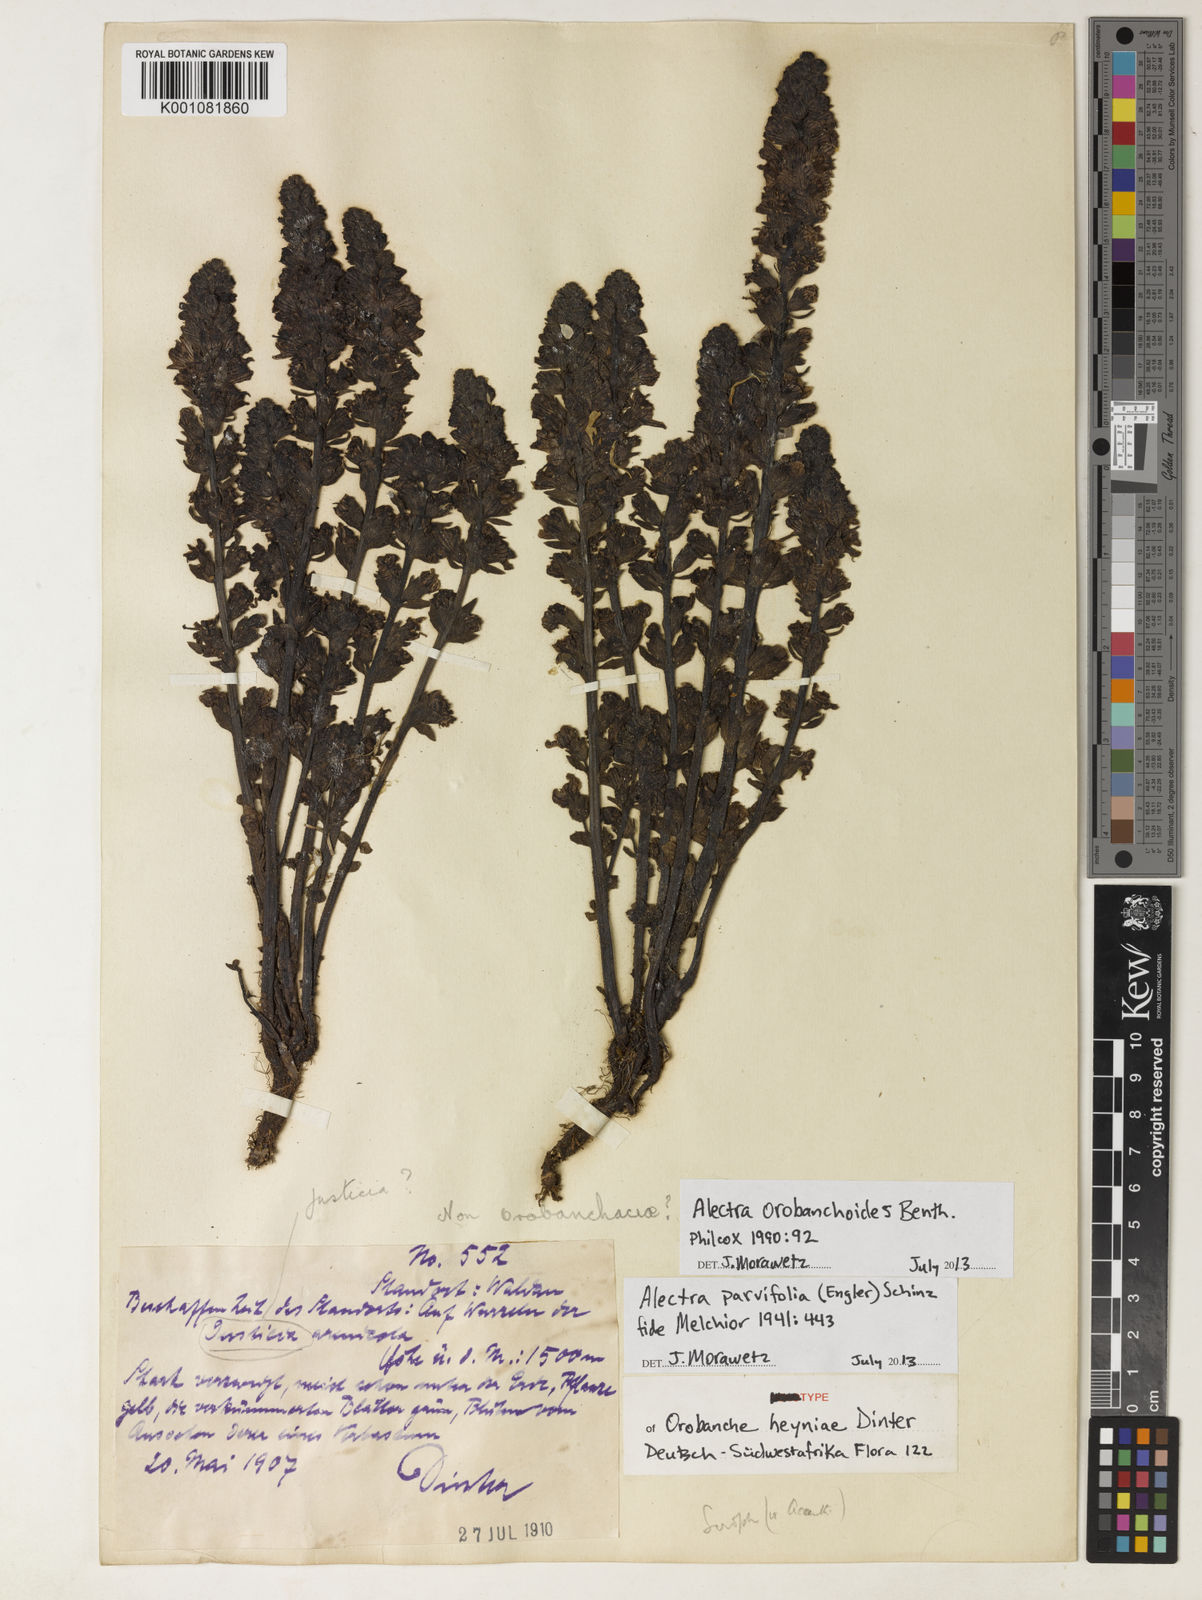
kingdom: Plantae
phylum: Tracheophyta
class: Magnoliopsida
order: Lamiales
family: Orobanchaceae
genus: Alectra
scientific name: Alectra orobanchoides
